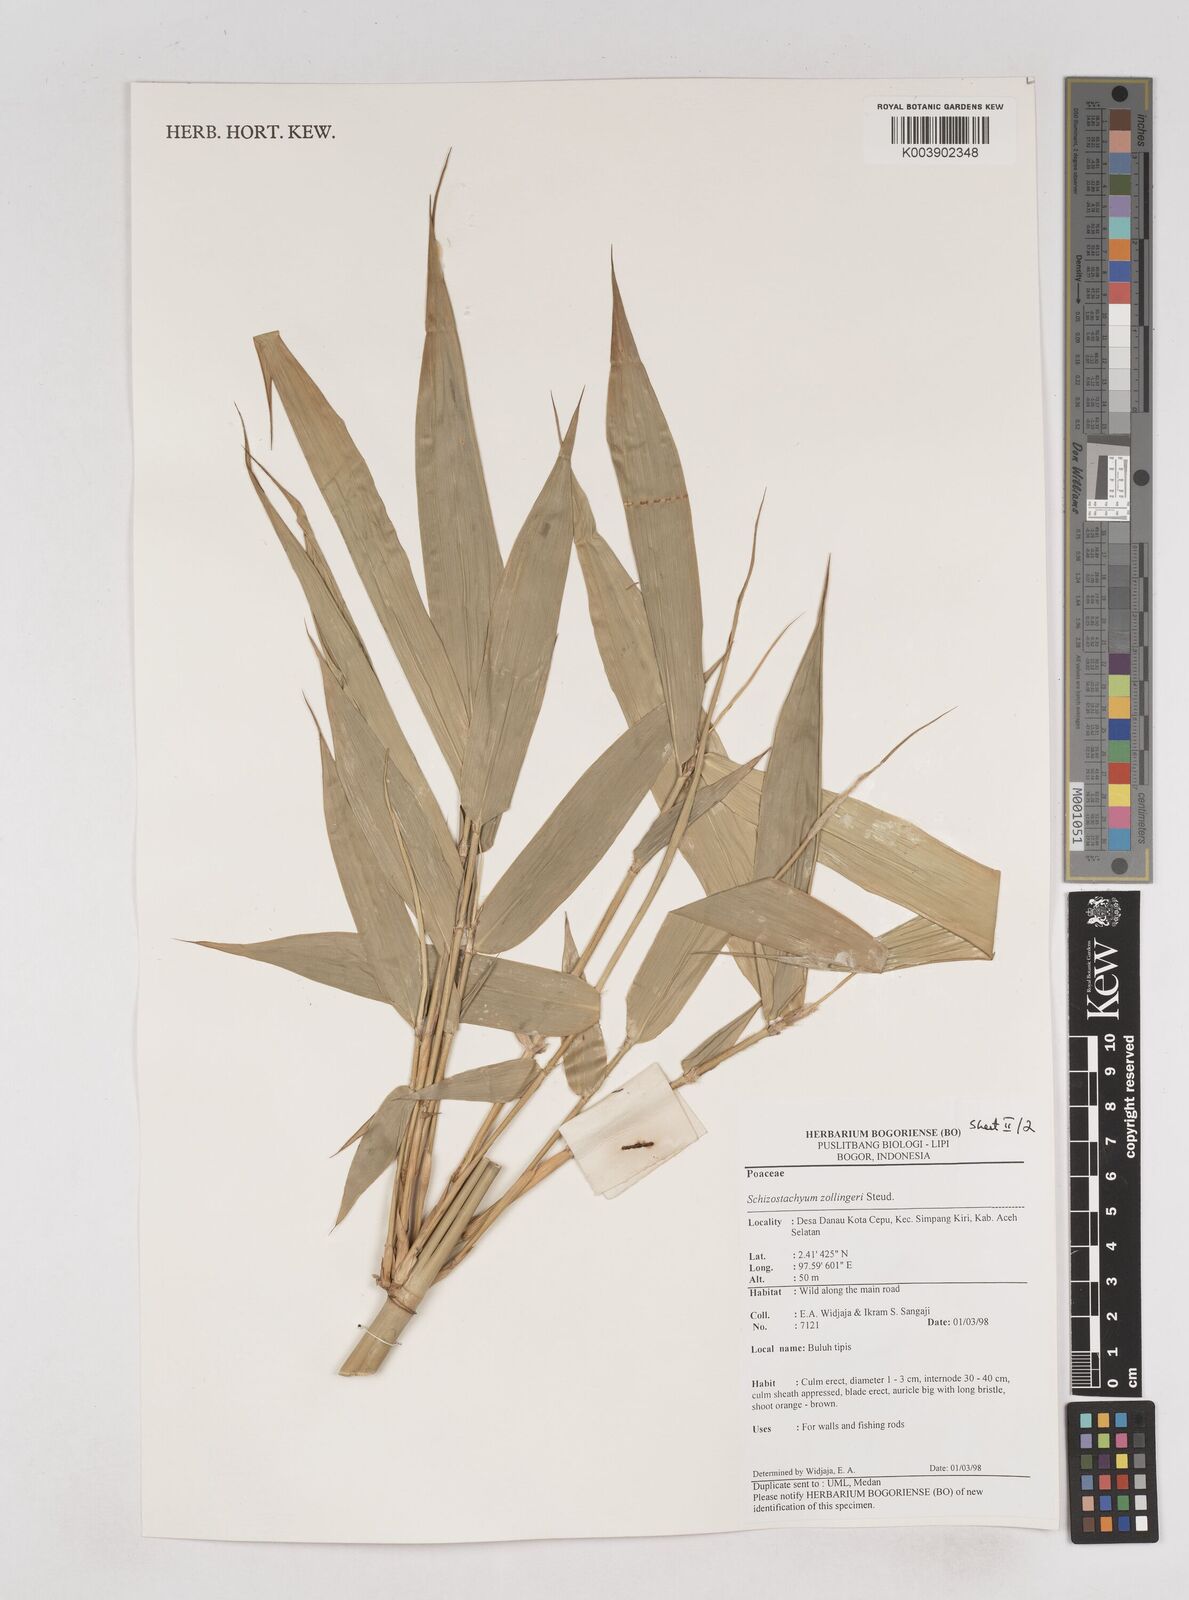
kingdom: Plantae
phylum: Tracheophyta
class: Liliopsida
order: Poales
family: Poaceae
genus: Schizostachyum
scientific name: Schizostachyum zollingeri
